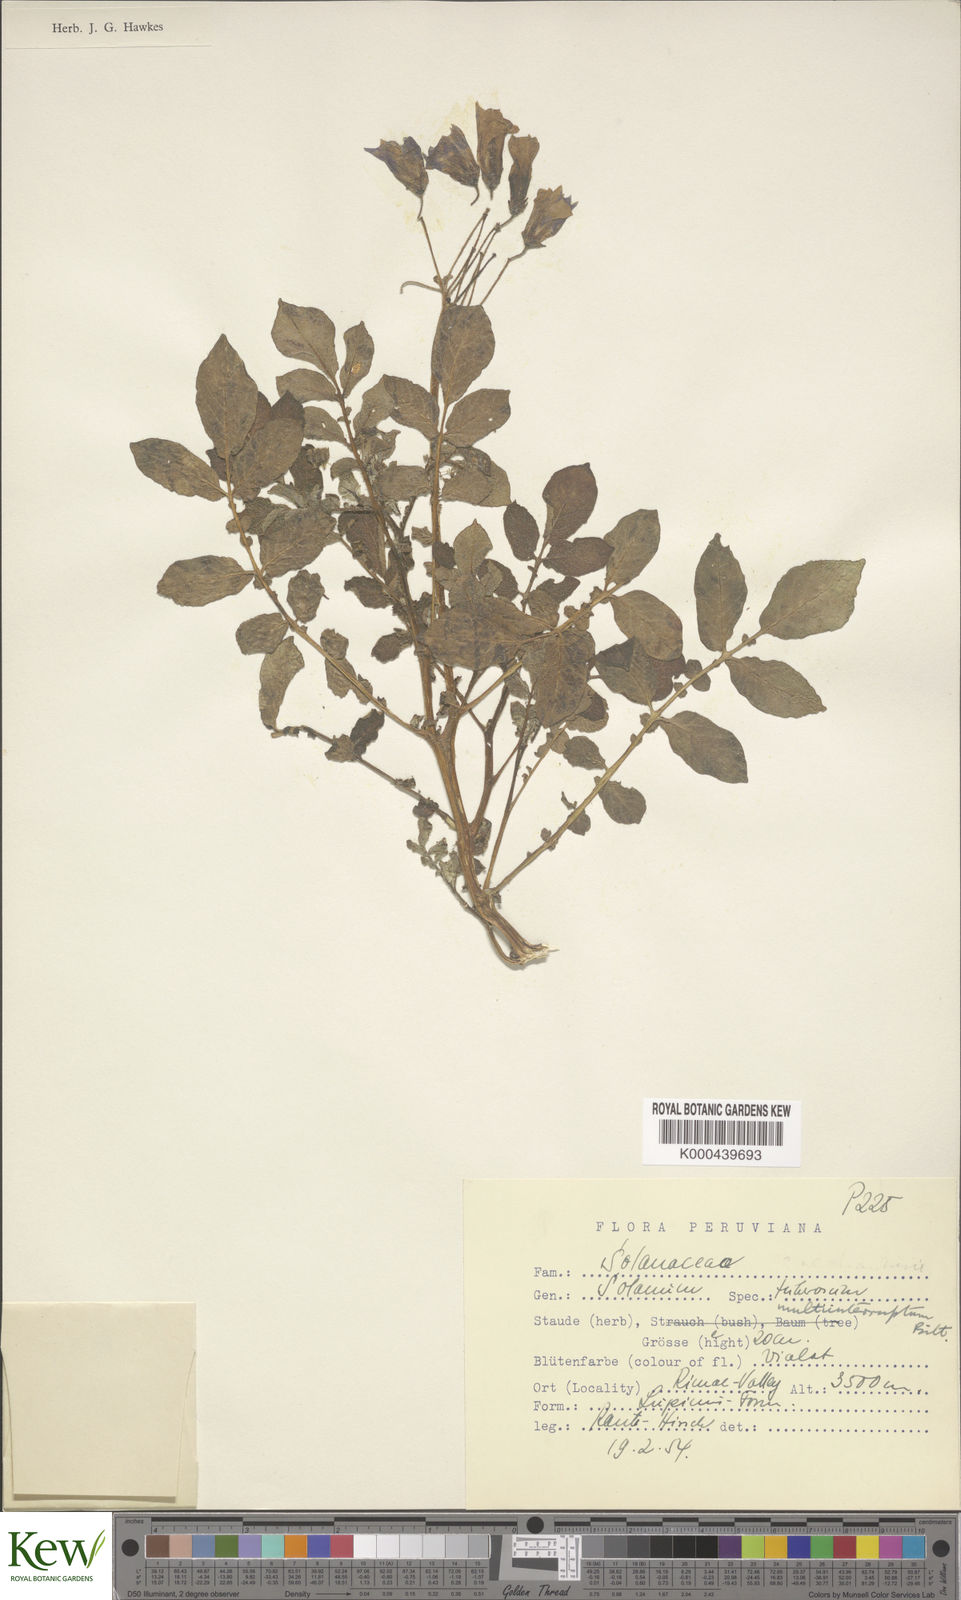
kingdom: Plantae
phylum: Tracheophyta
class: Magnoliopsida
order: Solanales
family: Solanaceae
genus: Solanum
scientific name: Solanum multiinterruptum
